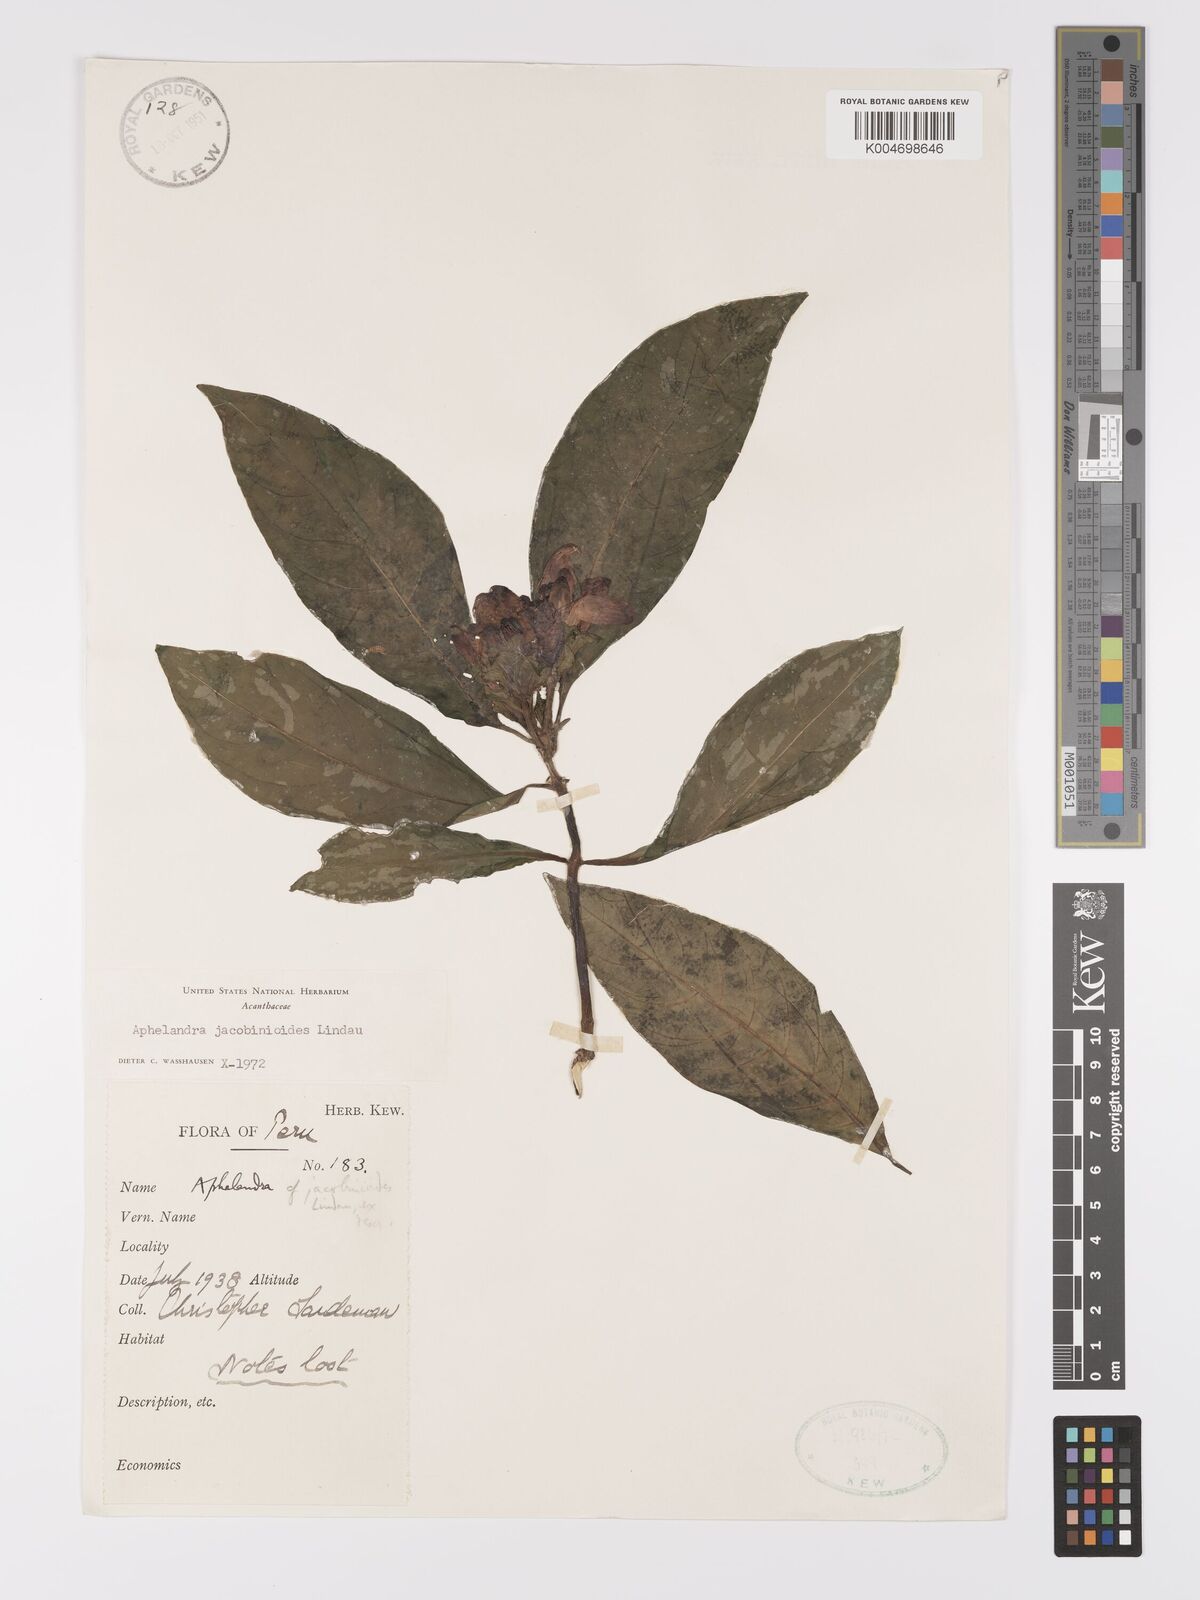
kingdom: Plantae
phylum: Tracheophyta
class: Magnoliopsida
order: Lamiales
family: Acanthaceae
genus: Aphelandra
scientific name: Aphelandra jacobinioides
